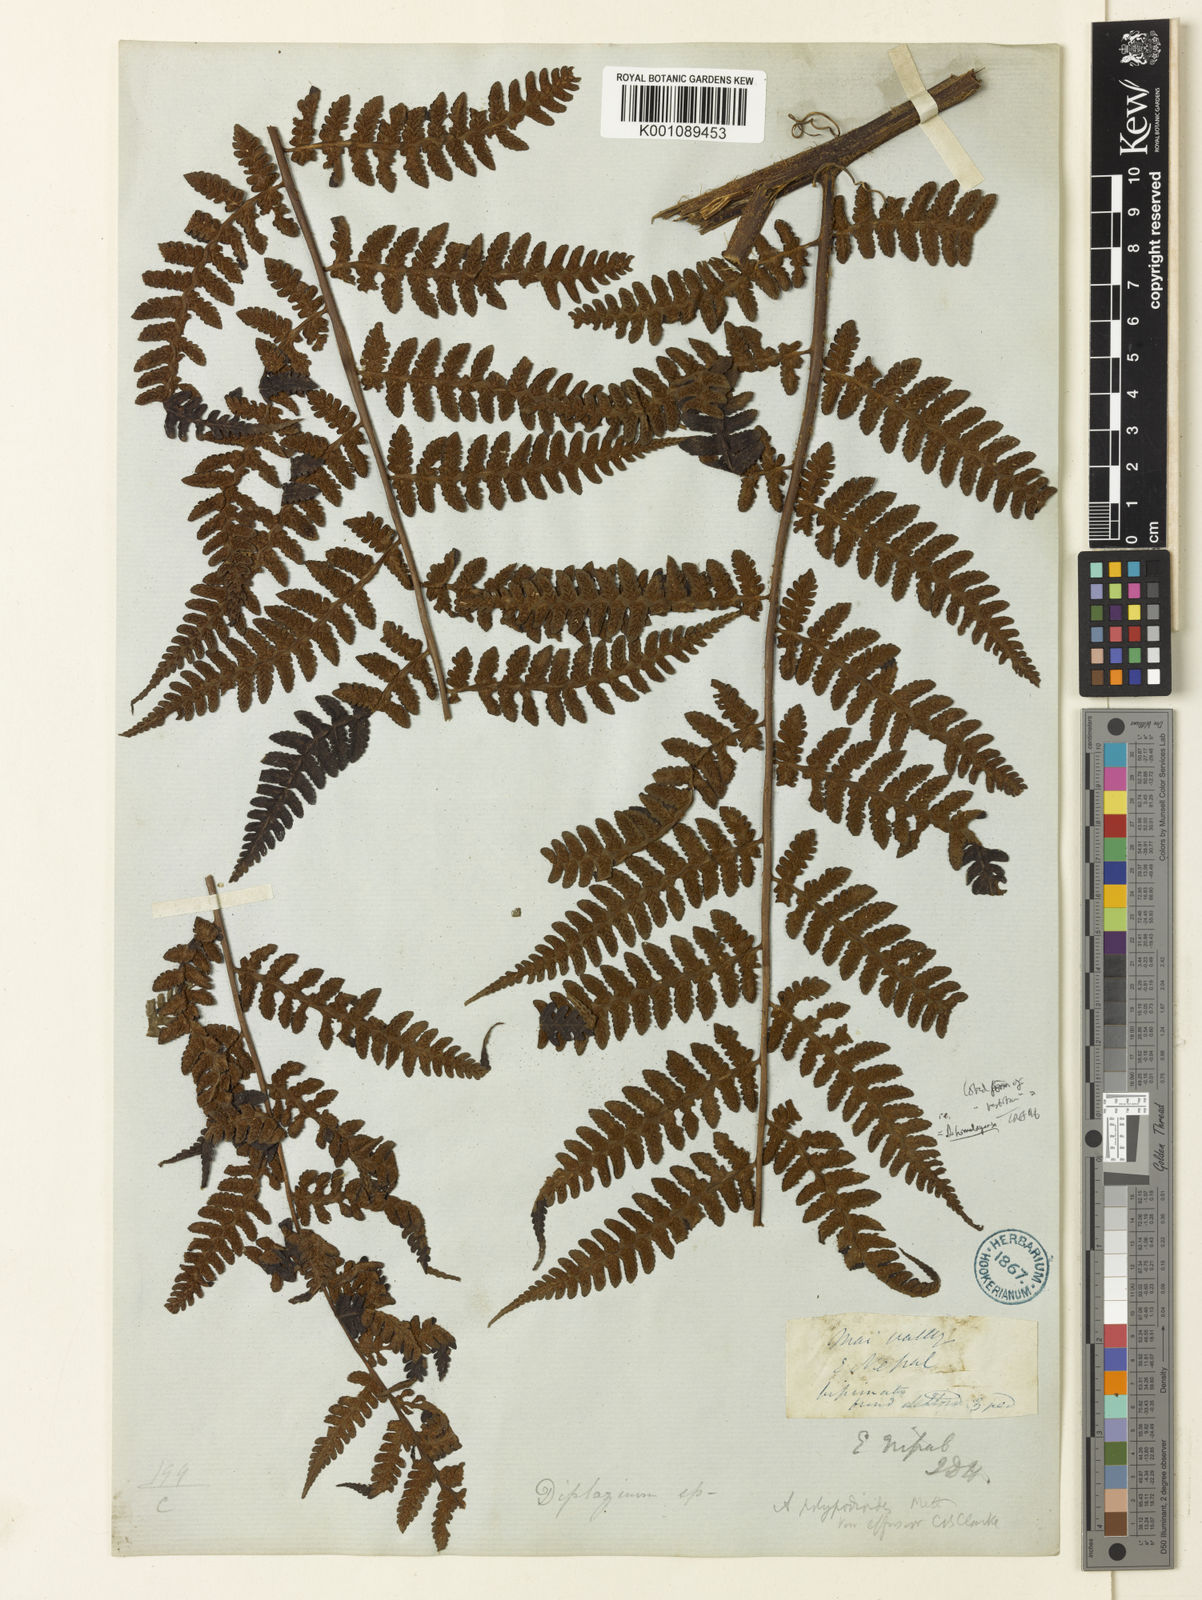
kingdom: Plantae
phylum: Tracheophyta
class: Polypodiopsida
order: Polypodiales
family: Athyriaceae
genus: Diplazium
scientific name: Diplazium polypodioides
